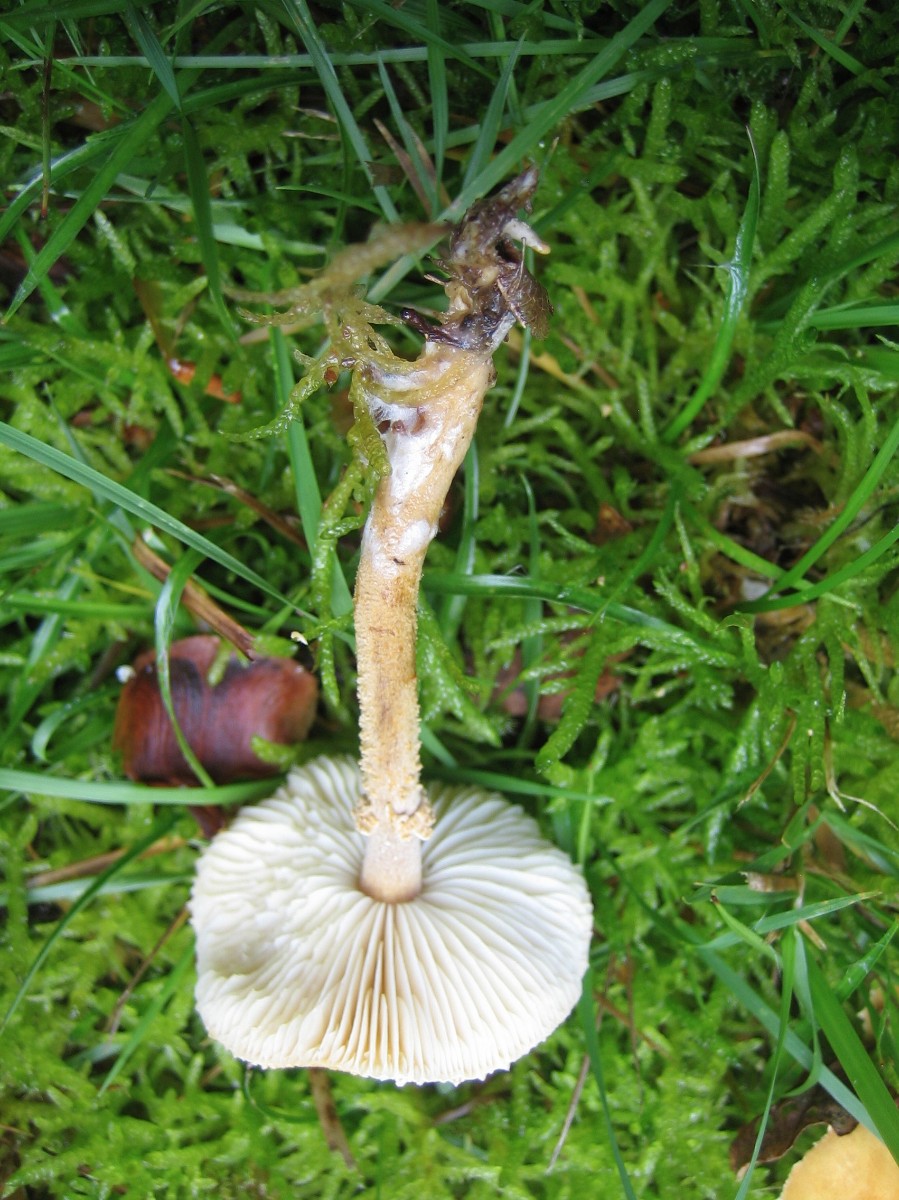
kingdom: Fungi
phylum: Basidiomycota
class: Agaricomycetes
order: Agaricales
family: Tricholomataceae
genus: Cystoderma
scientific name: Cystoderma amianthinum
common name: okkergul grynhat
